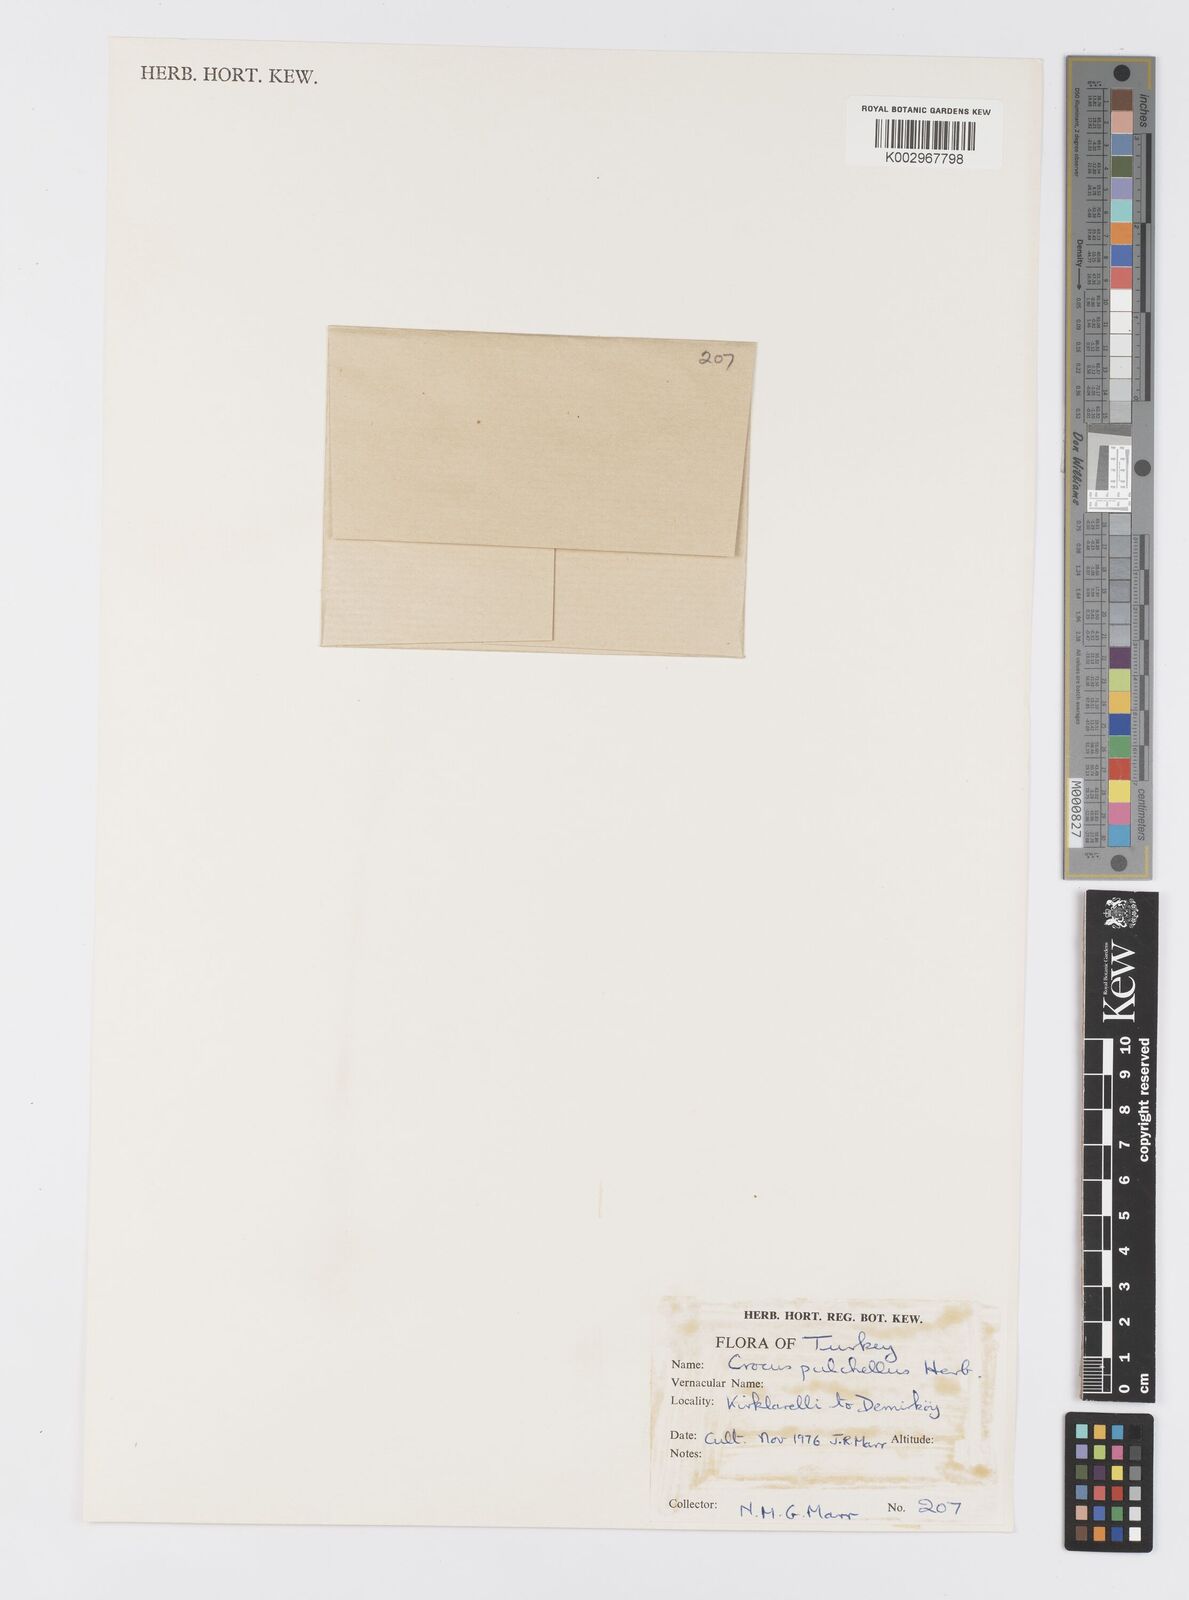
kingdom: Plantae
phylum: Tracheophyta
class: Liliopsida
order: Asparagales
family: Iridaceae
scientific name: Iridaceae
